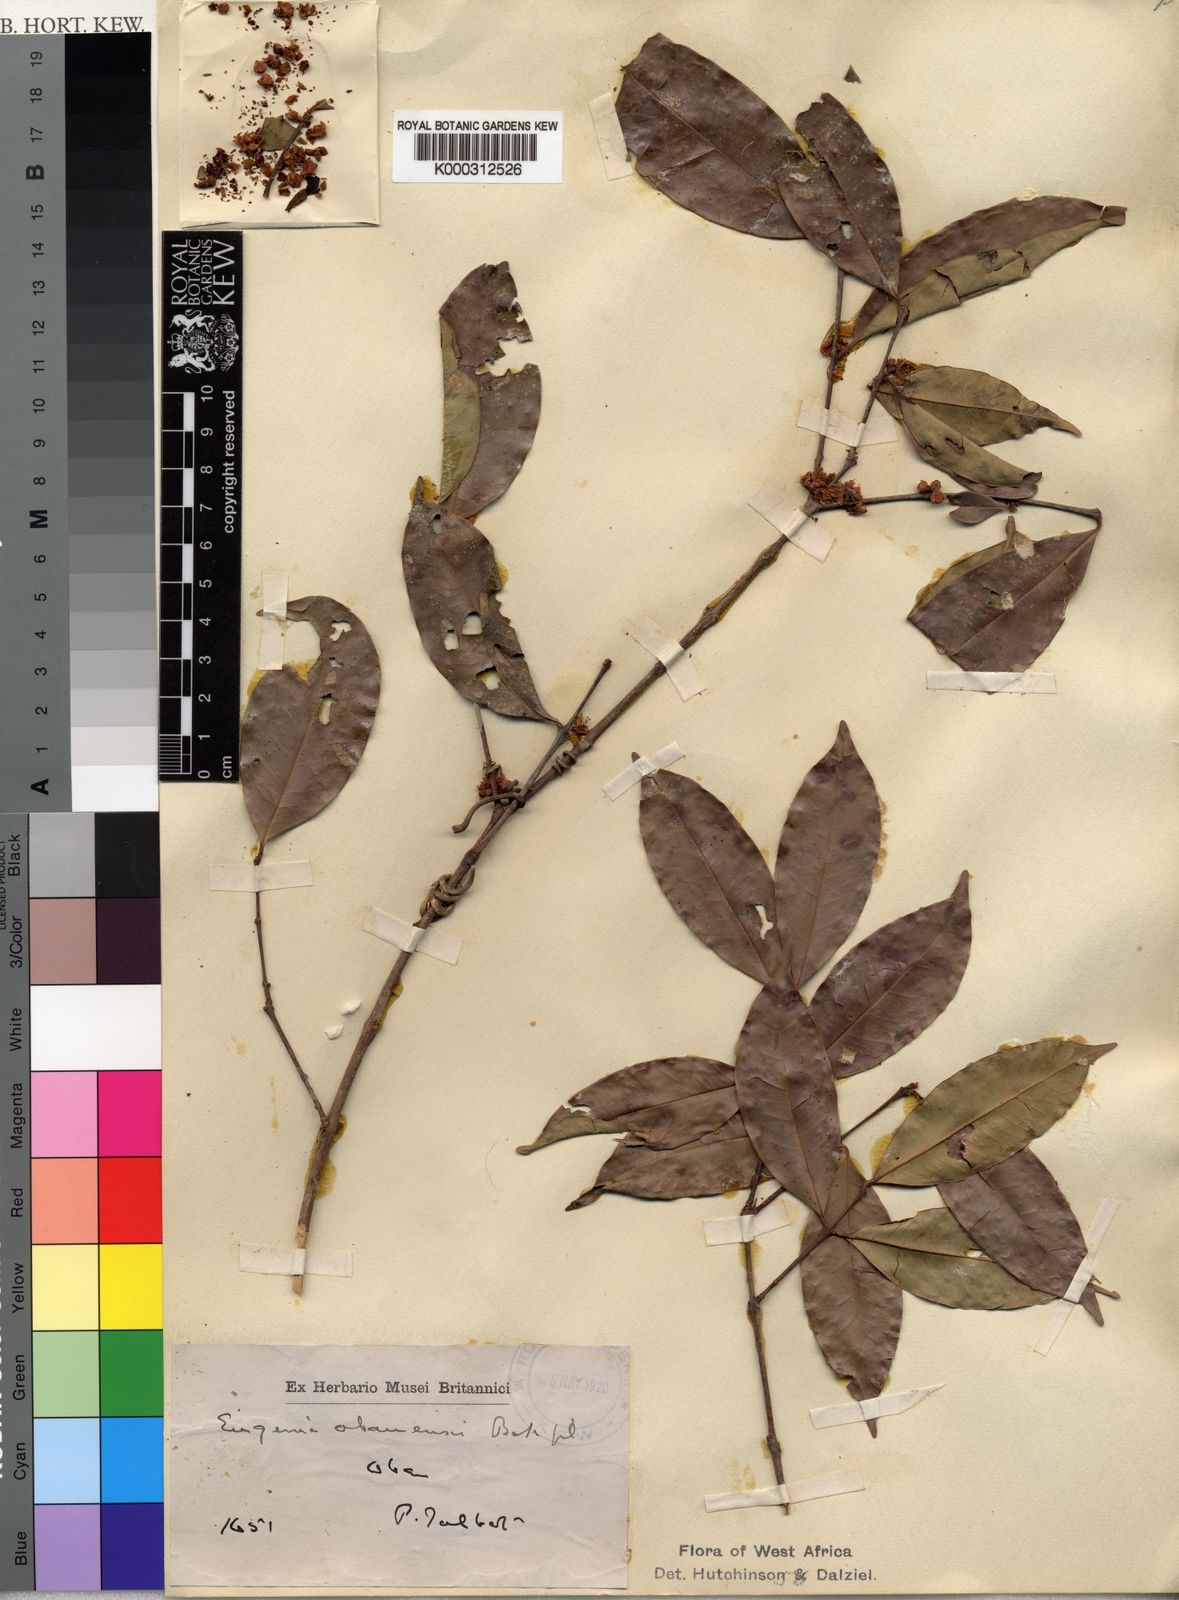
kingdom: Plantae
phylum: Tracheophyta
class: Magnoliopsida
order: Myrtales
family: Myrtaceae
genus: Eugenia
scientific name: Eugenia
